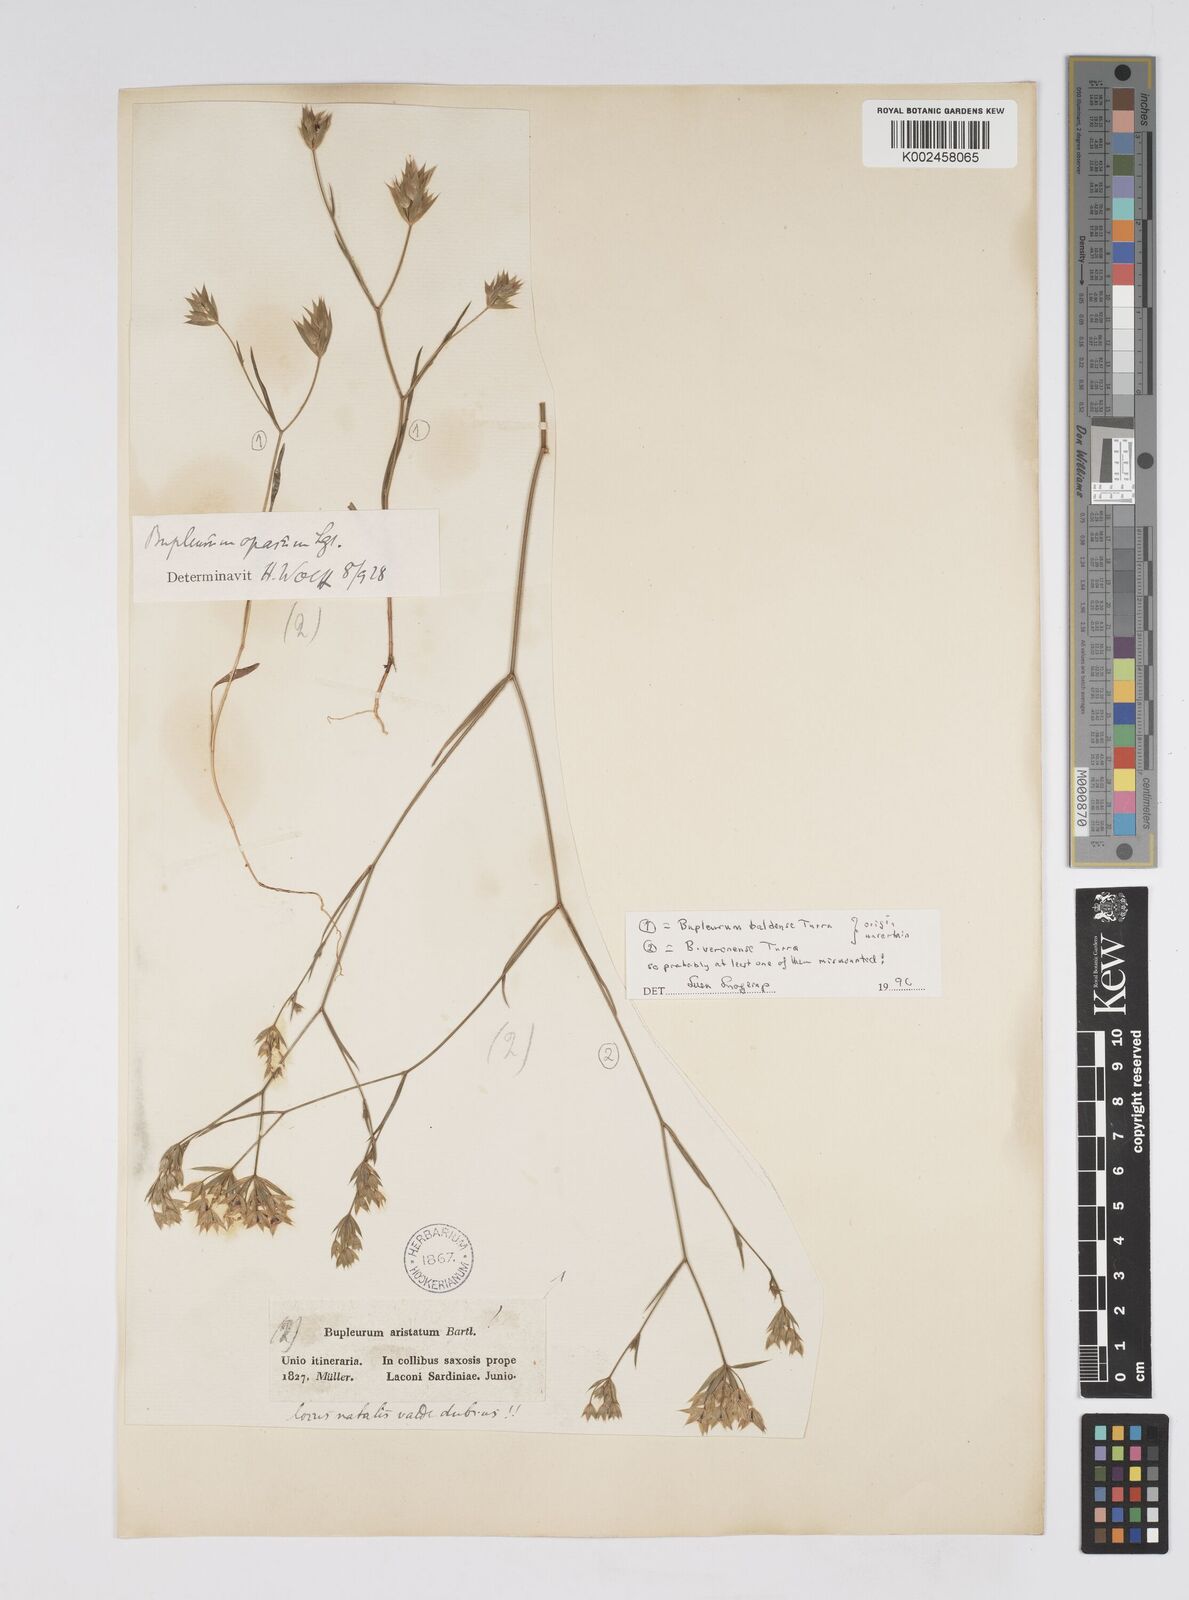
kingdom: Plantae
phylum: Tracheophyta
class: Magnoliopsida
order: Apiales
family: Apiaceae
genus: Bupleurum
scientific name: Bupleurum baldense
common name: Small hare's-ear
